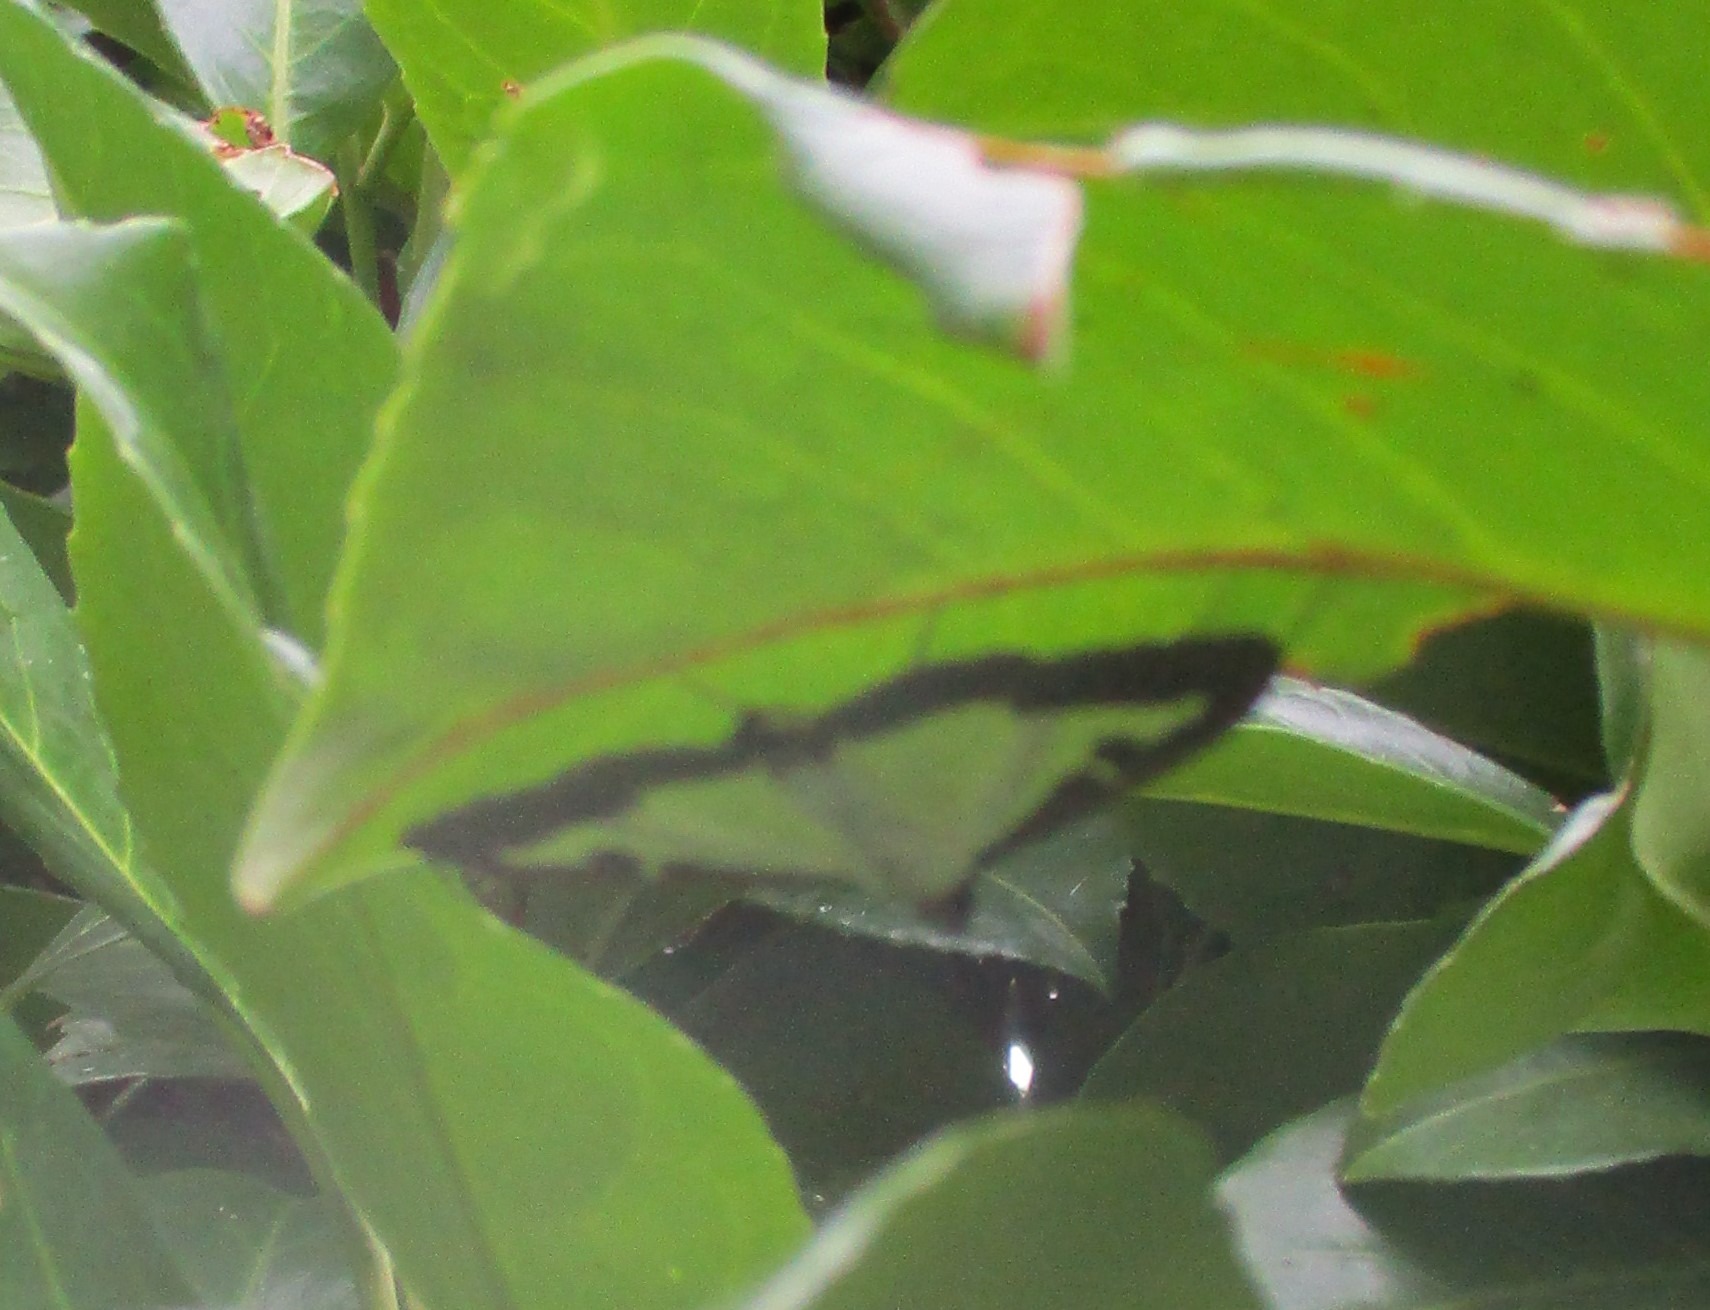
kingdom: Animalia
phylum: Arthropoda
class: Insecta
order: Lepidoptera
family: Crambidae
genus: Cydalima
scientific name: Cydalima perspectalis
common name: Buksbomhalvmøl
